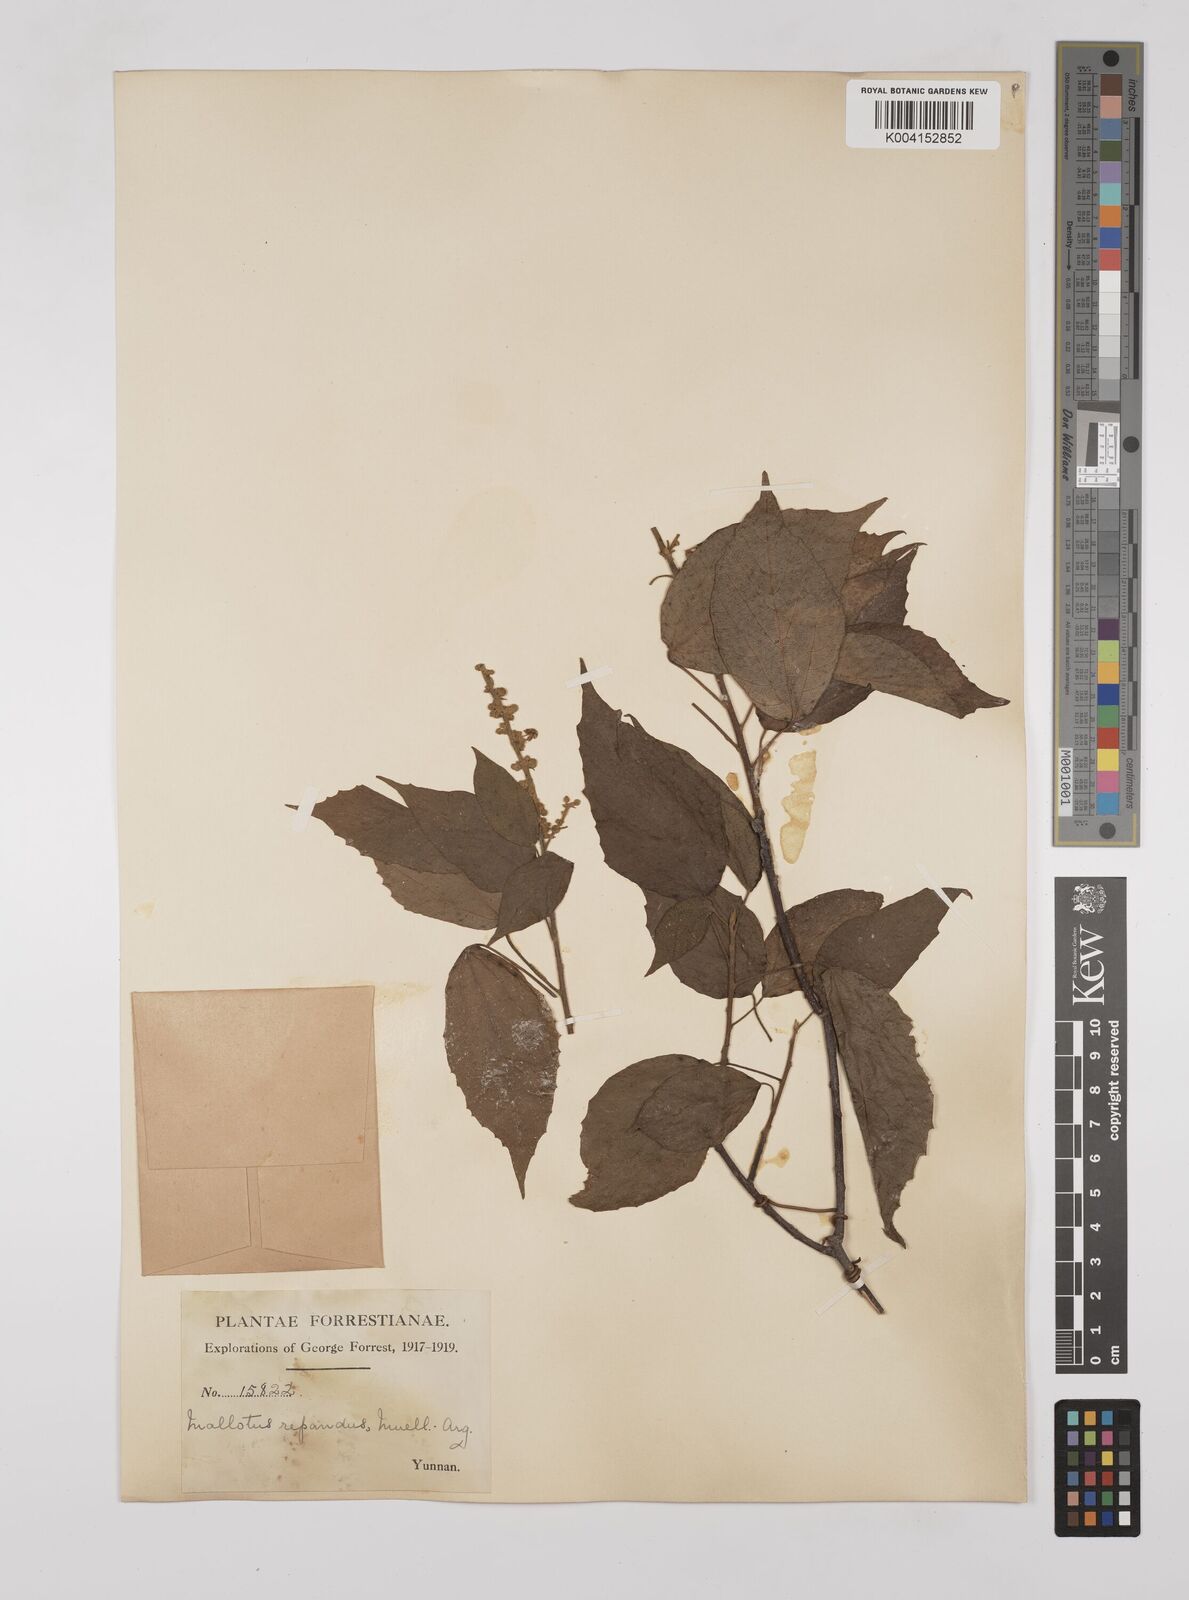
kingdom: Plantae
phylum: Tracheophyta
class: Magnoliopsida
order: Malpighiales
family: Euphorbiaceae
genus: Mallotus
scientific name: Mallotus illudens
